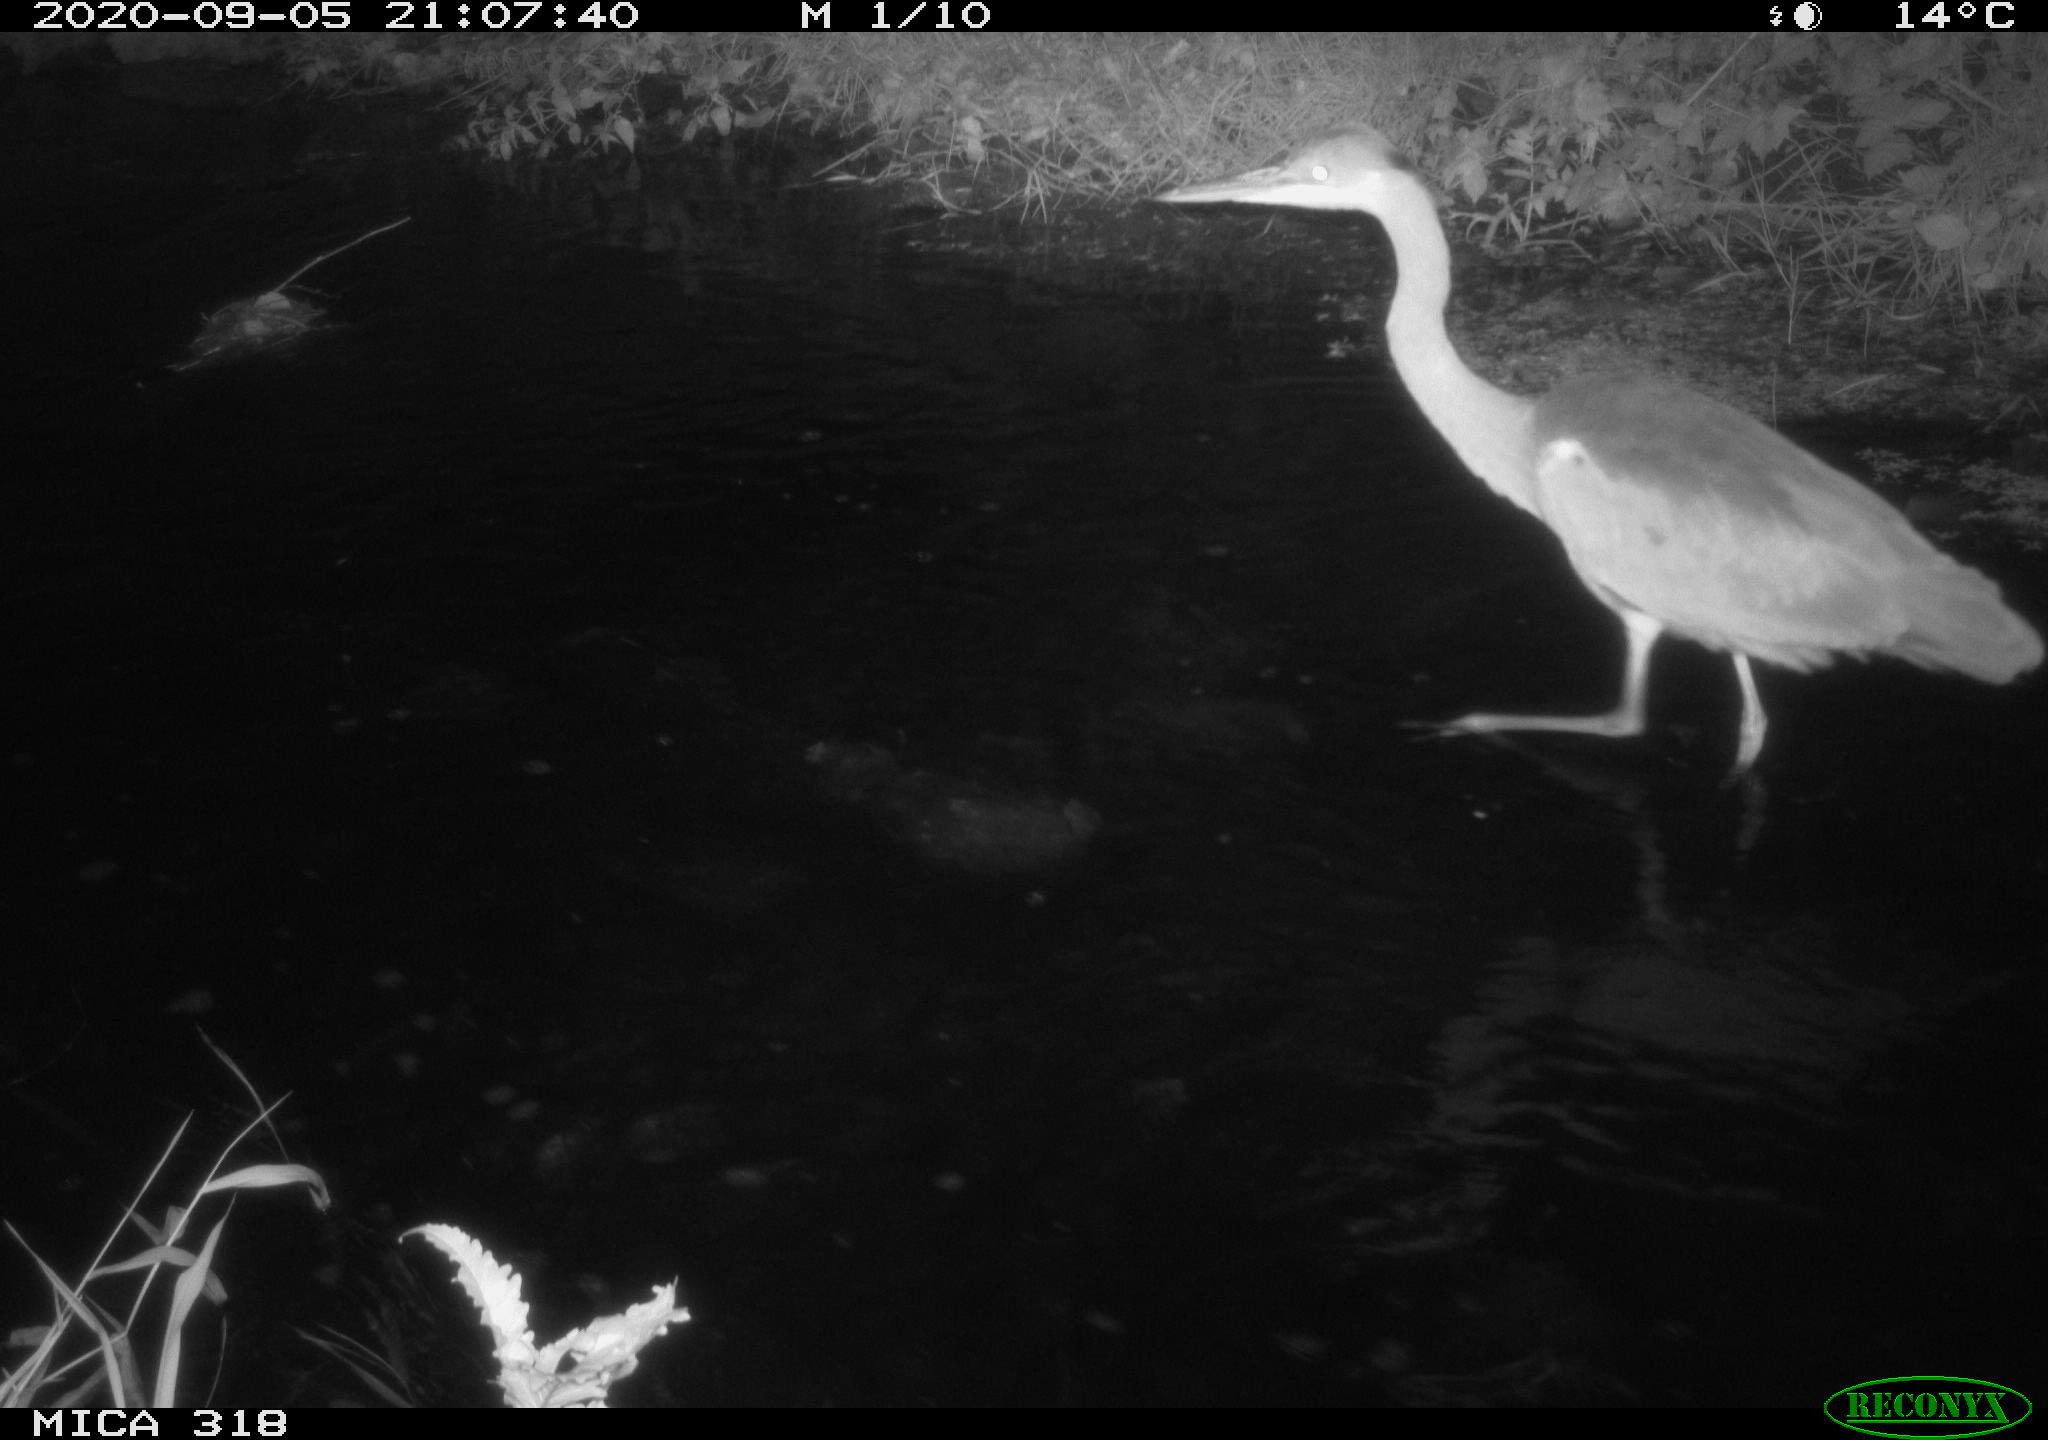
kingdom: Animalia
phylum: Chordata
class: Aves
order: Pelecaniformes
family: Ardeidae
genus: Ardea
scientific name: Ardea
